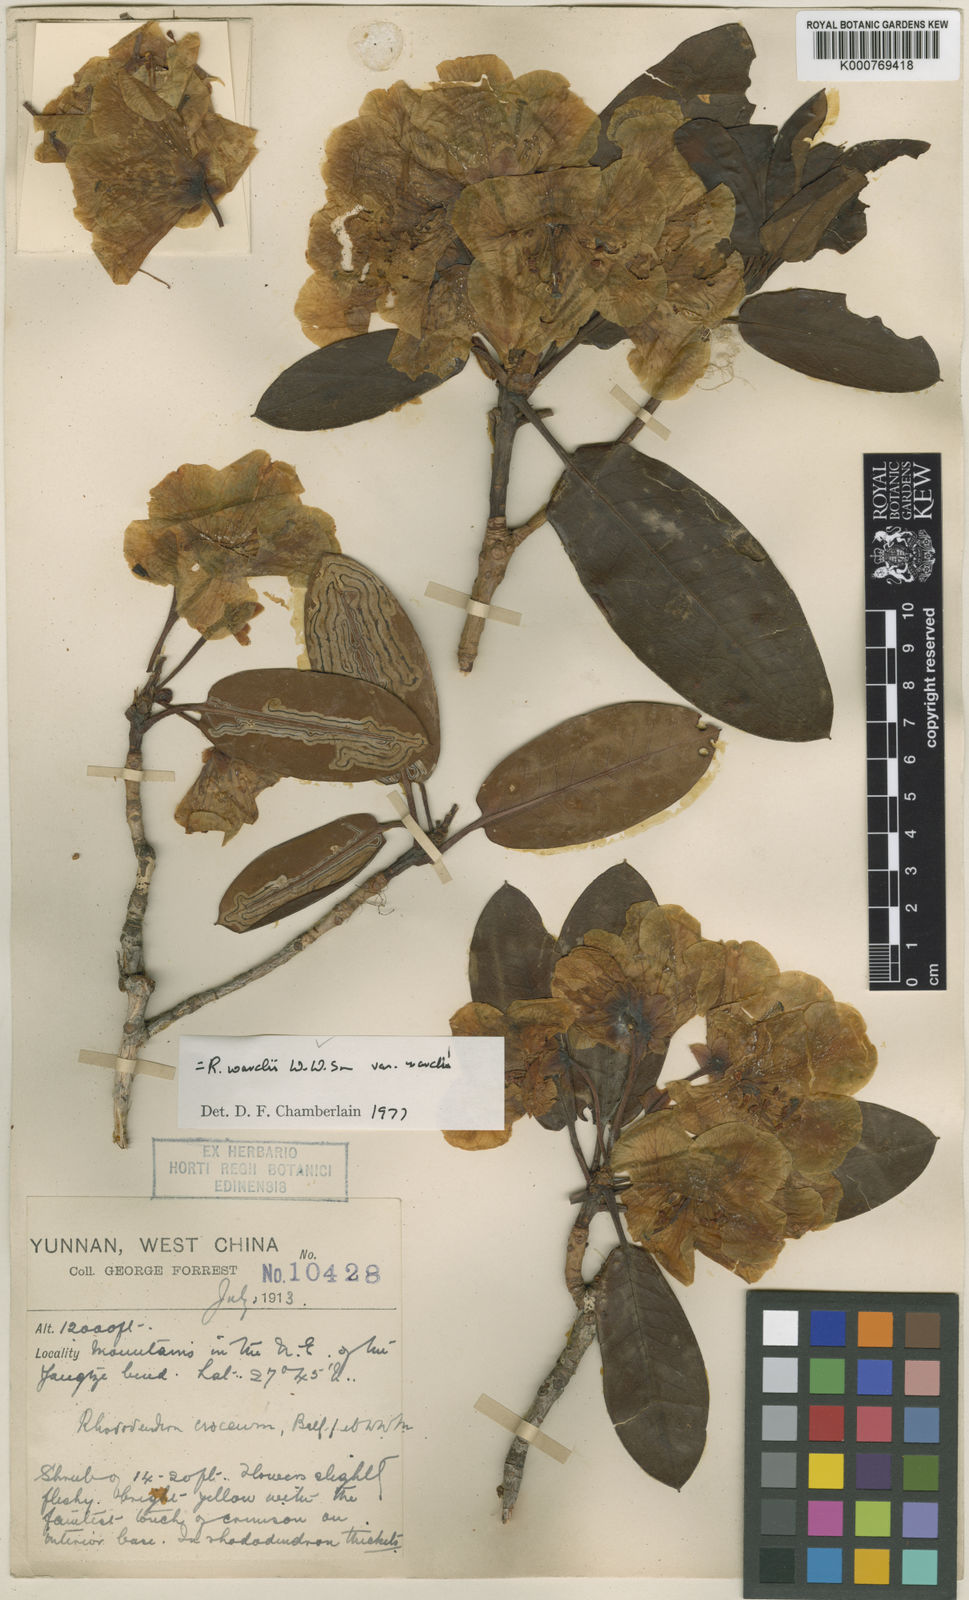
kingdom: Plantae
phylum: Tracheophyta
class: Magnoliopsida
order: Ericales
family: Ericaceae
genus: Rhododendron
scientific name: Rhododendron wardii
